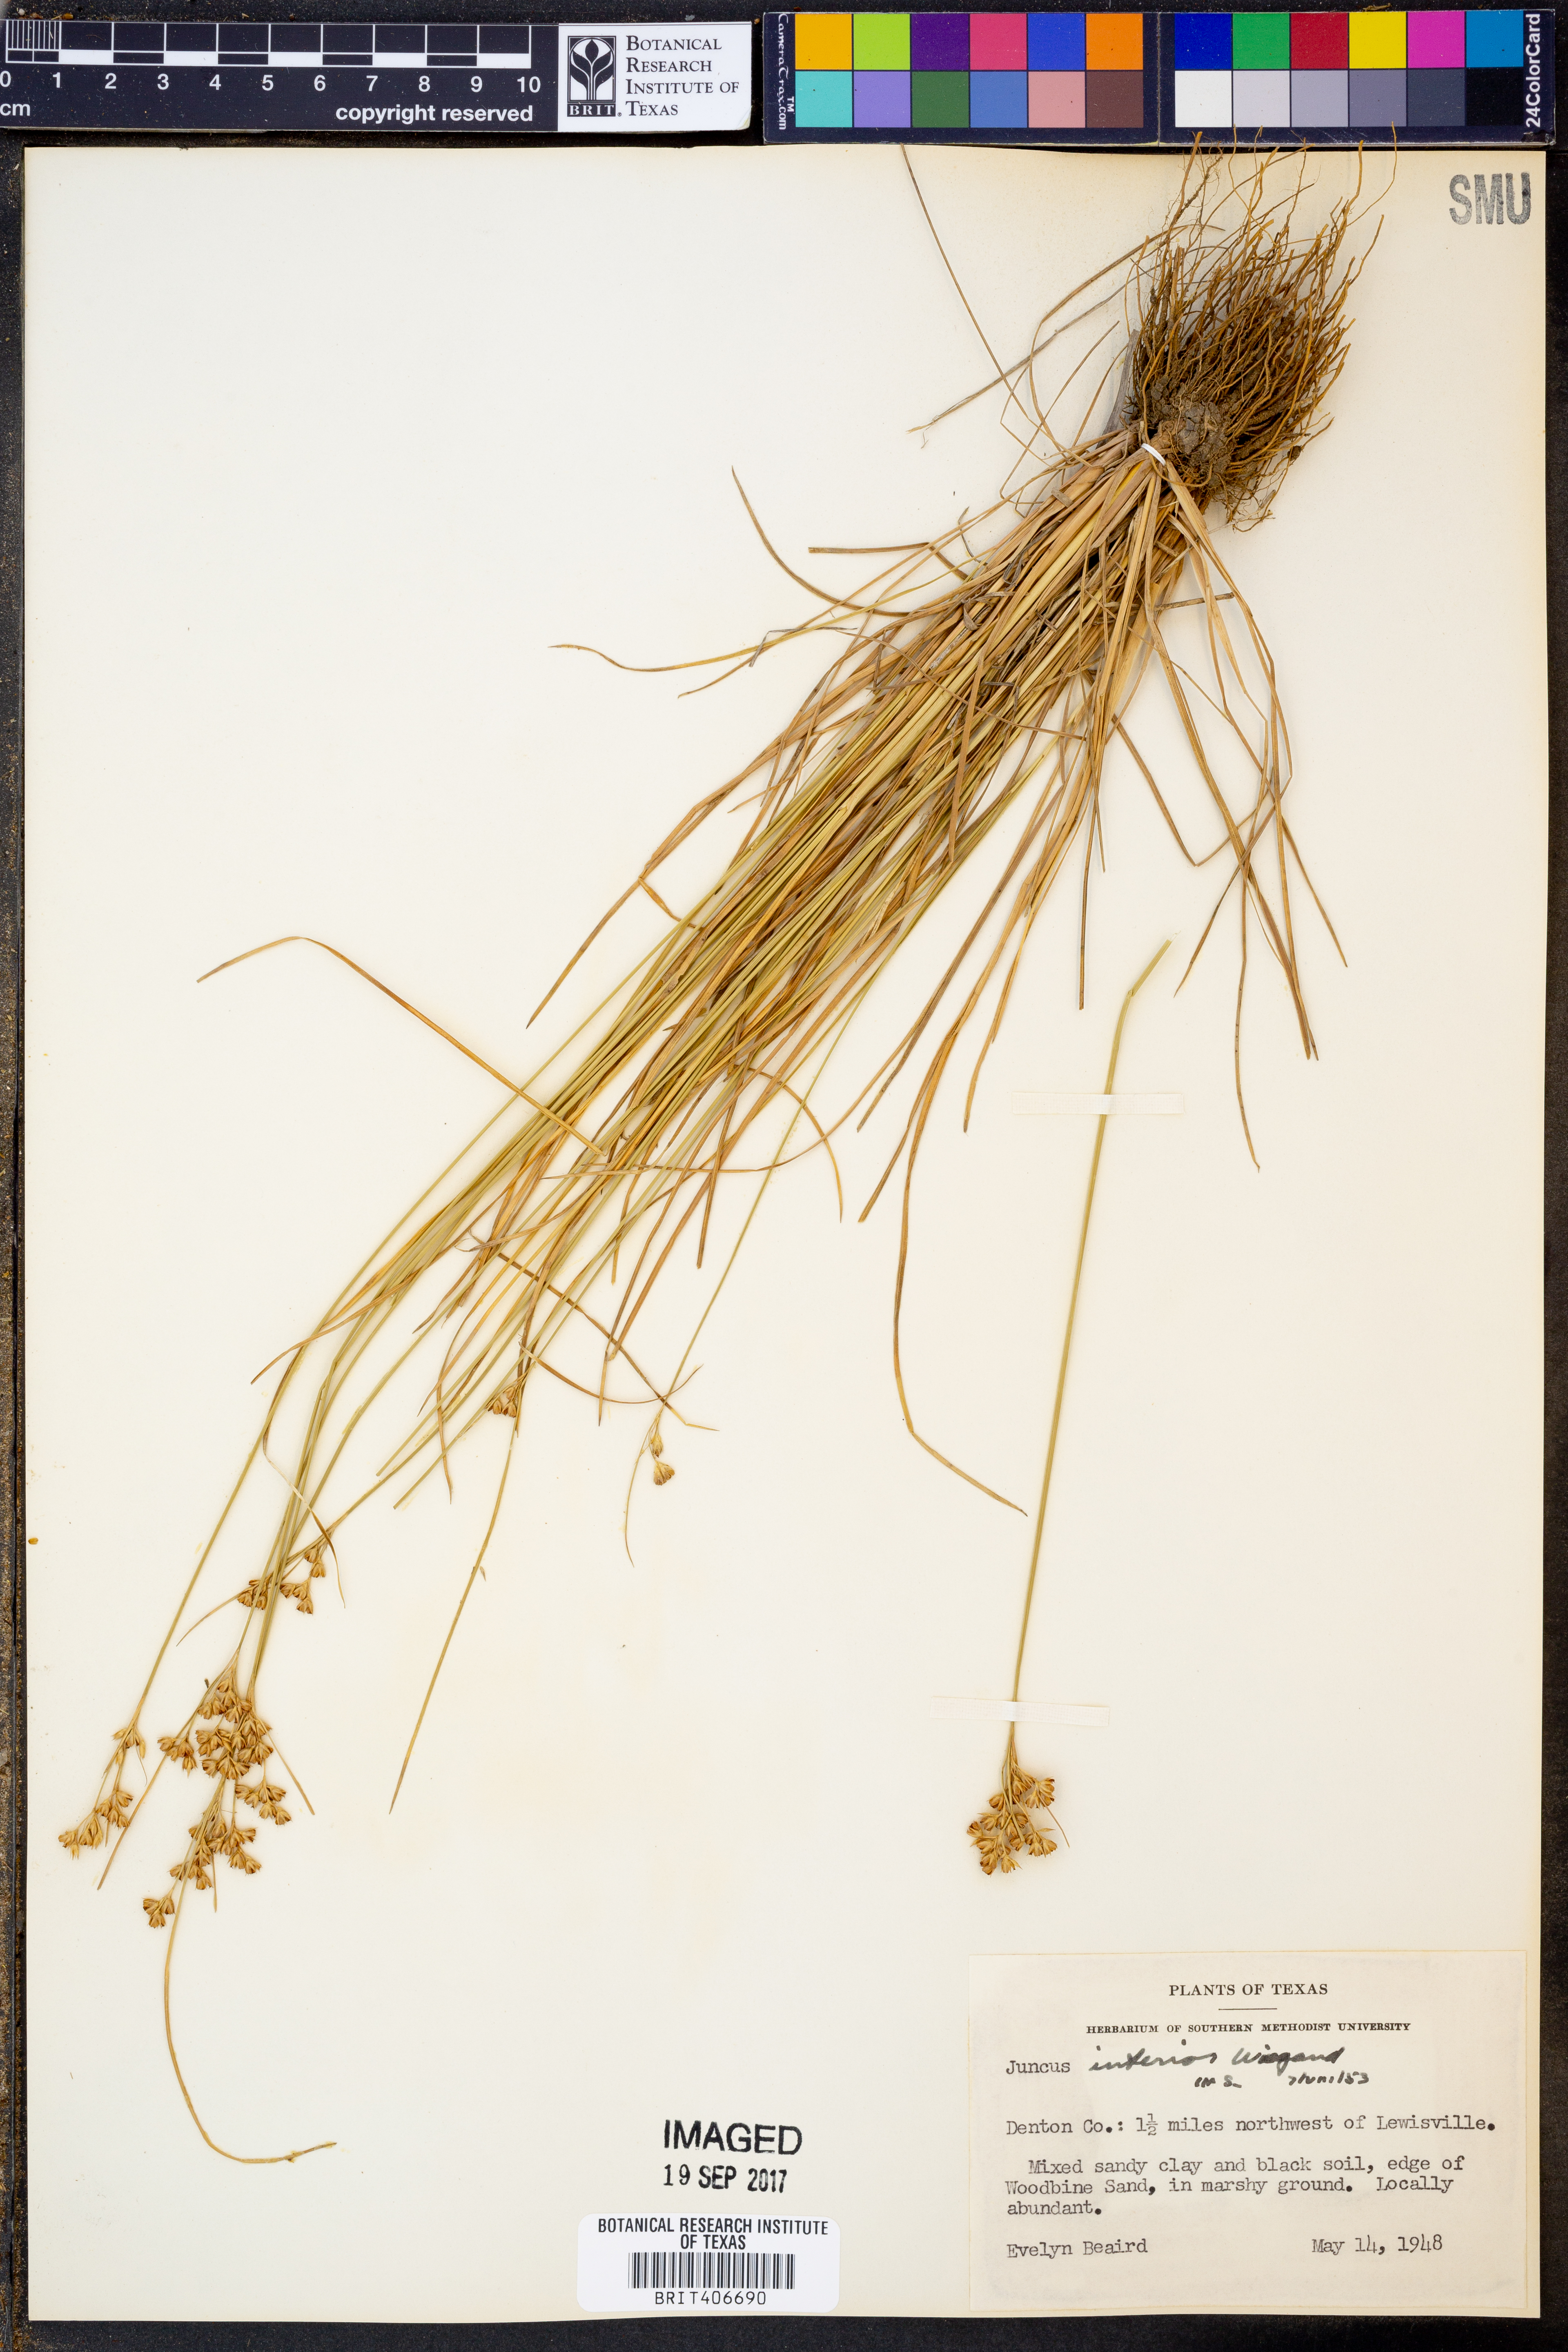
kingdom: Plantae
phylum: Tracheophyta
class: Liliopsida
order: Poales
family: Juncaceae
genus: Juncus
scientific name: Juncus interior
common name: Interior rush
